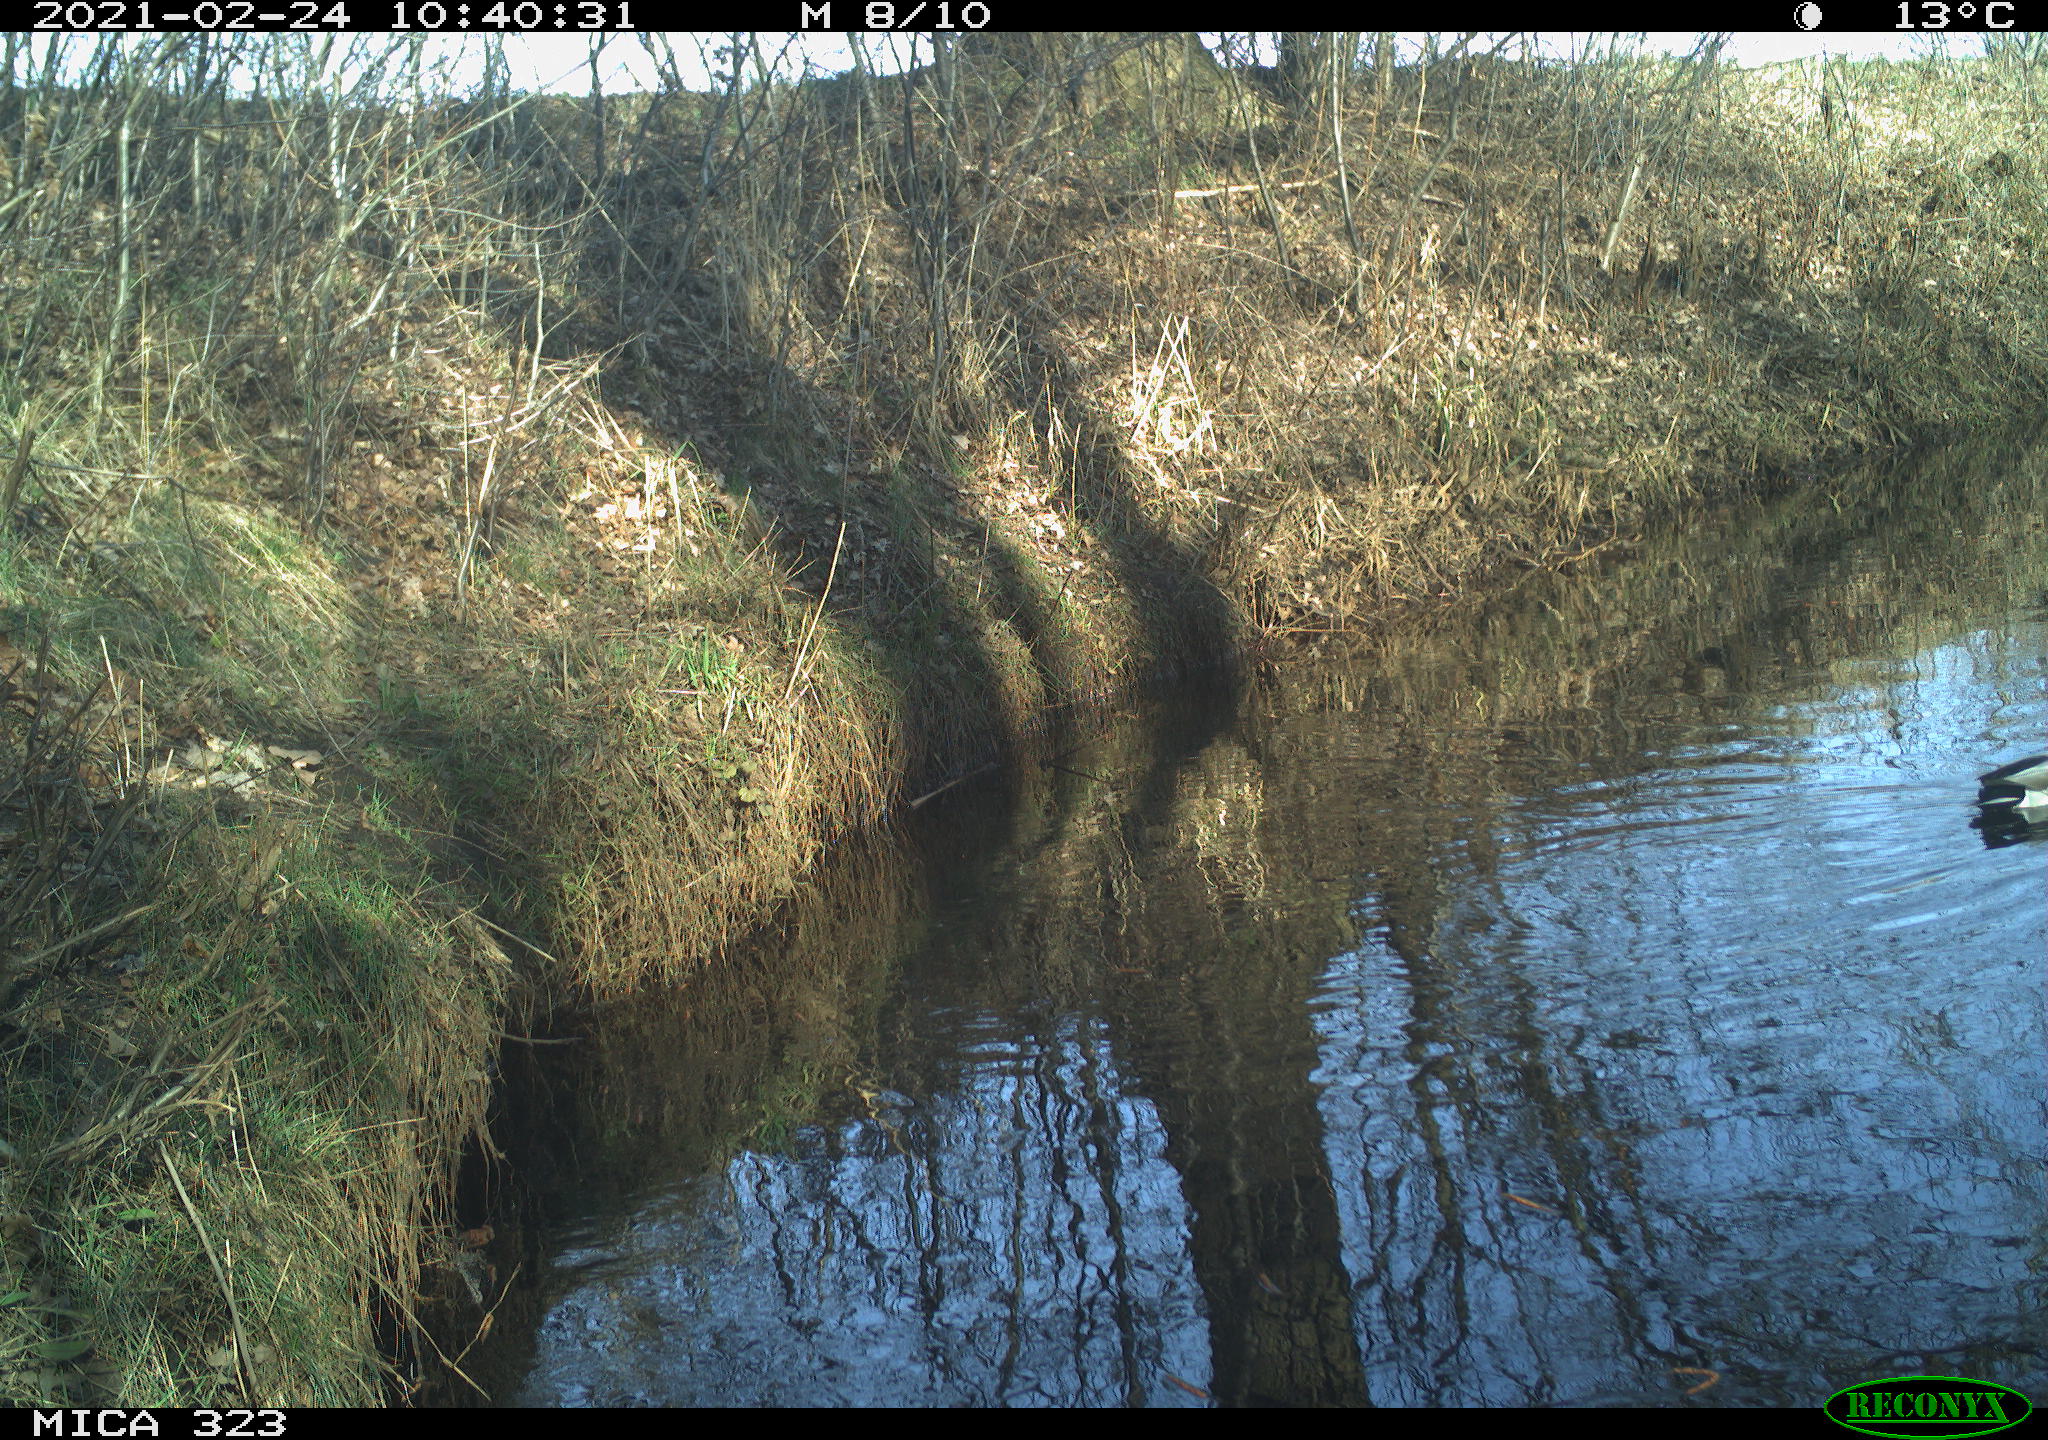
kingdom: Animalia
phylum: Chordata
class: Aves
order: Anseriformes
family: Anatidae
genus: Anas
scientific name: Anas platyrhynchos
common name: Mallard
